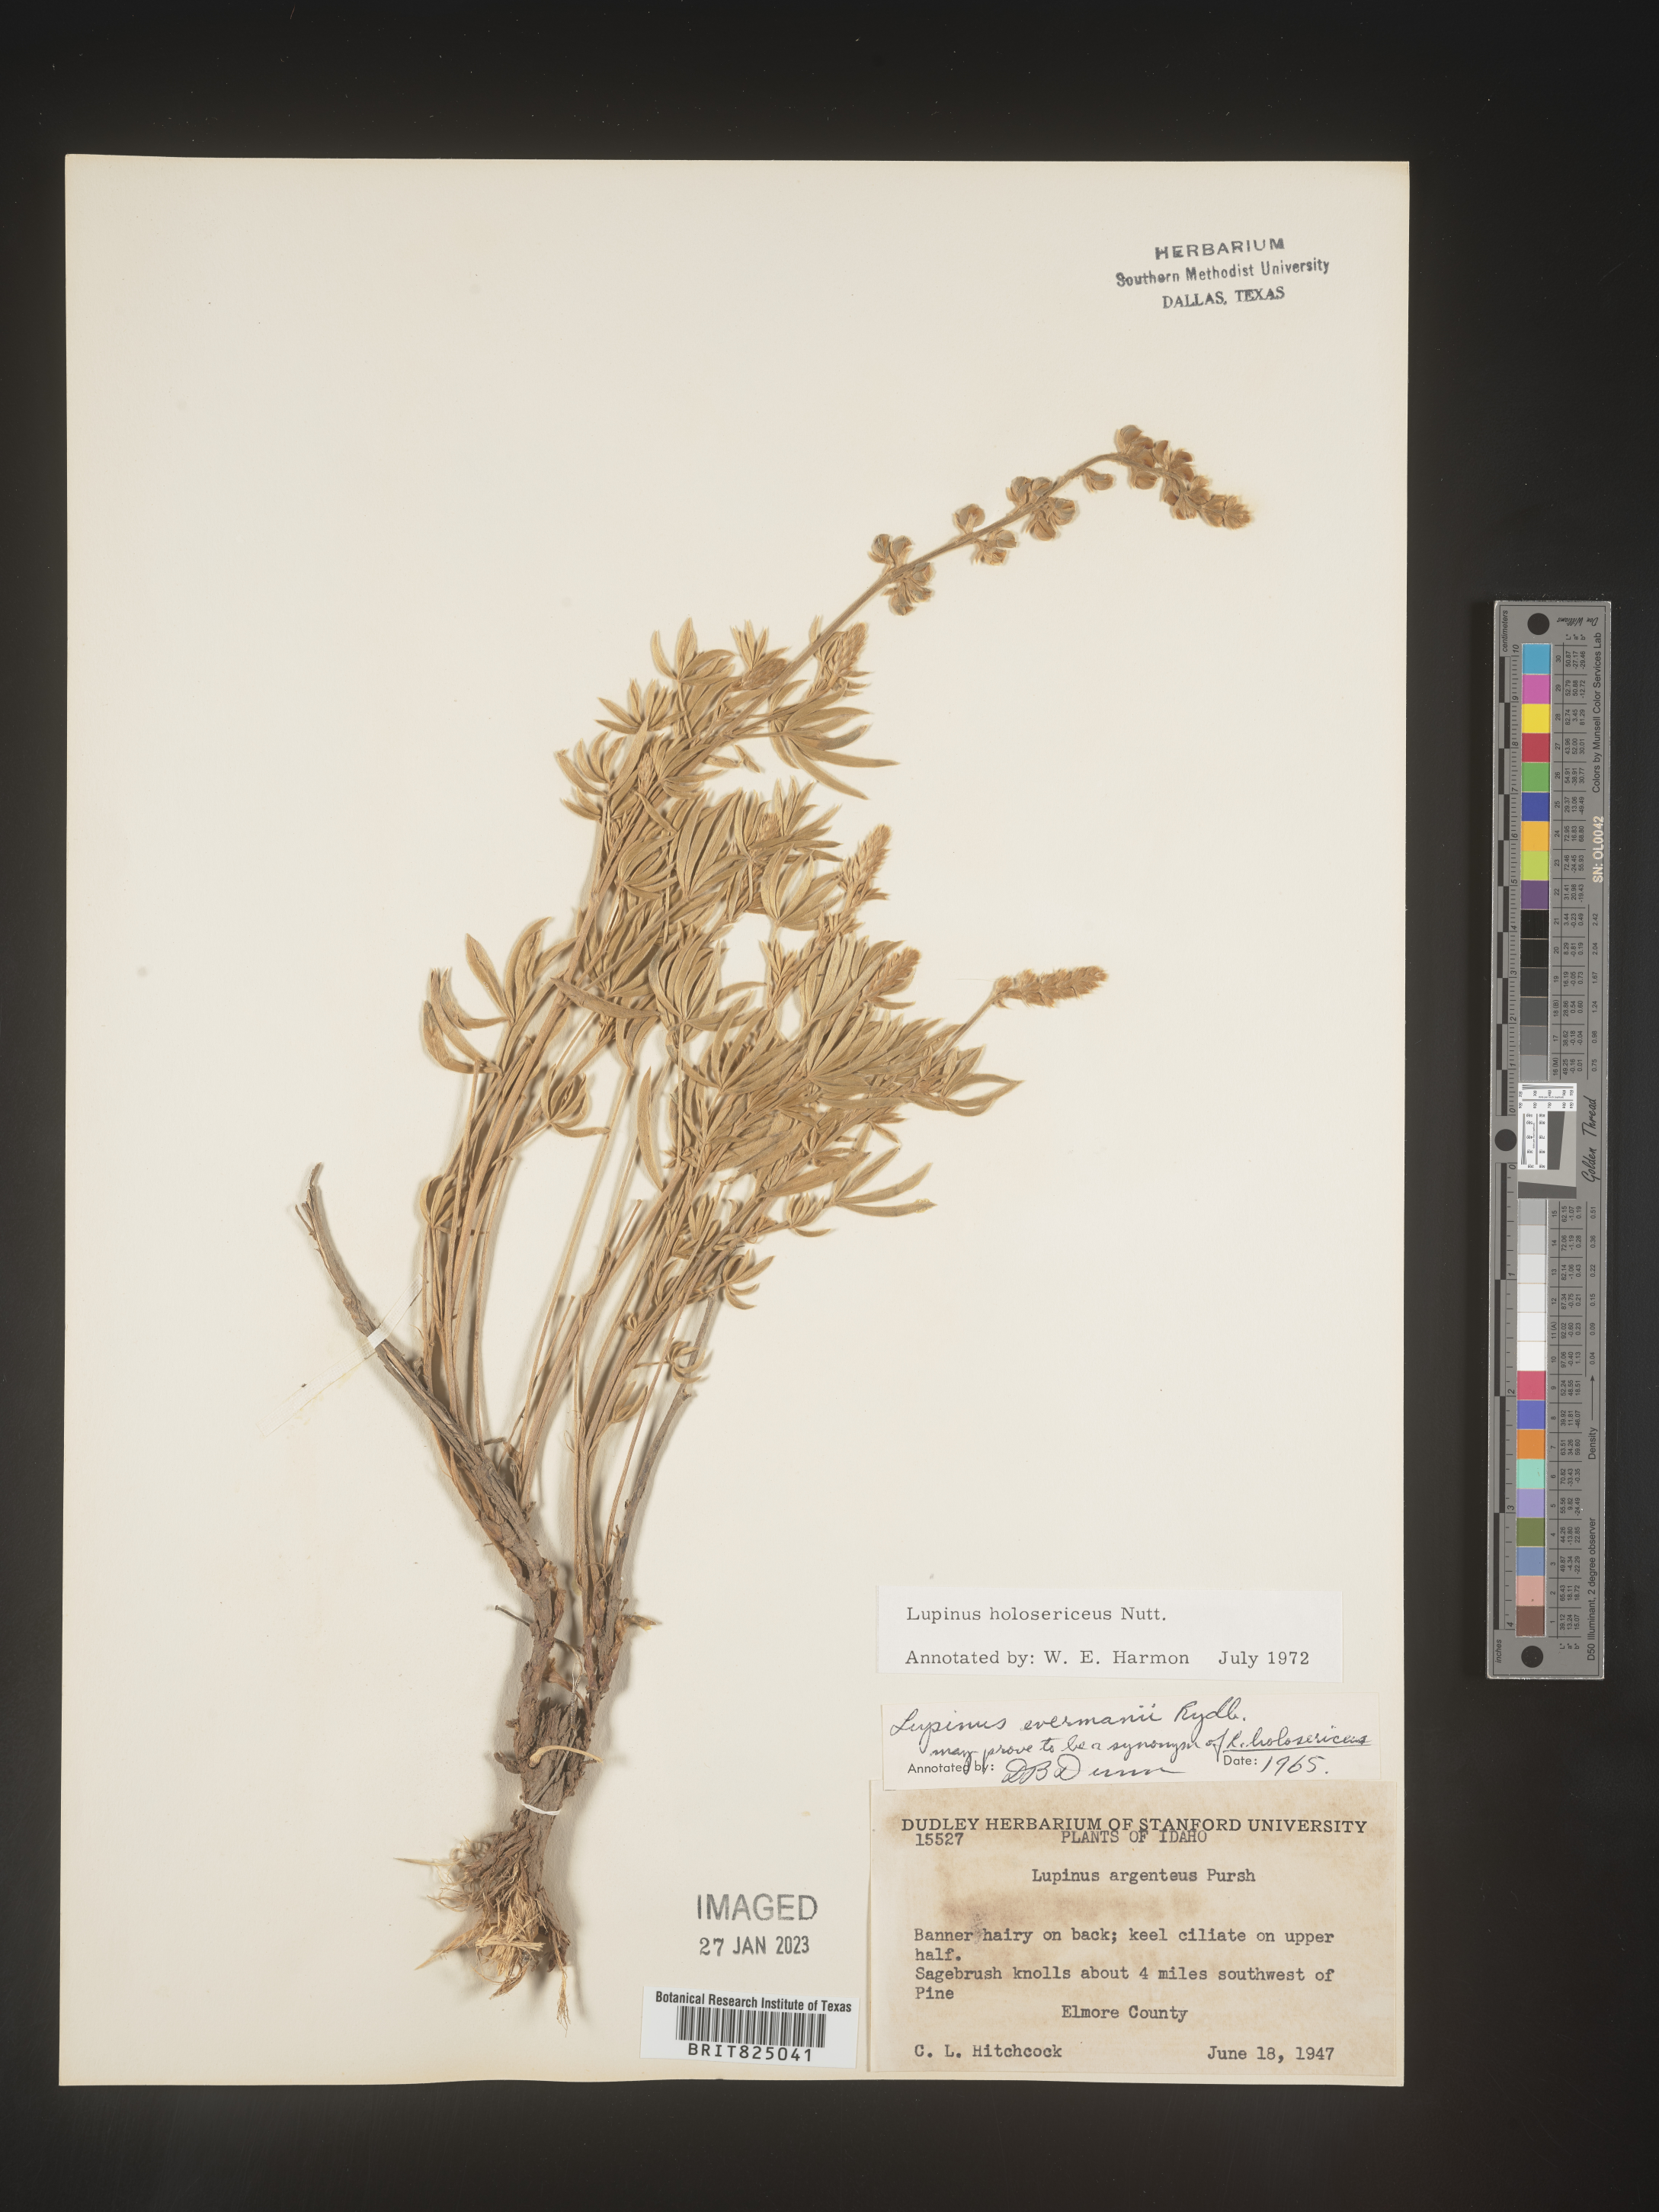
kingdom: Plantae
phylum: Tracheophyta
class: Magnoliopsida
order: Fabales
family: Fabaceae
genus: Lupinus
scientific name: Lupinus
